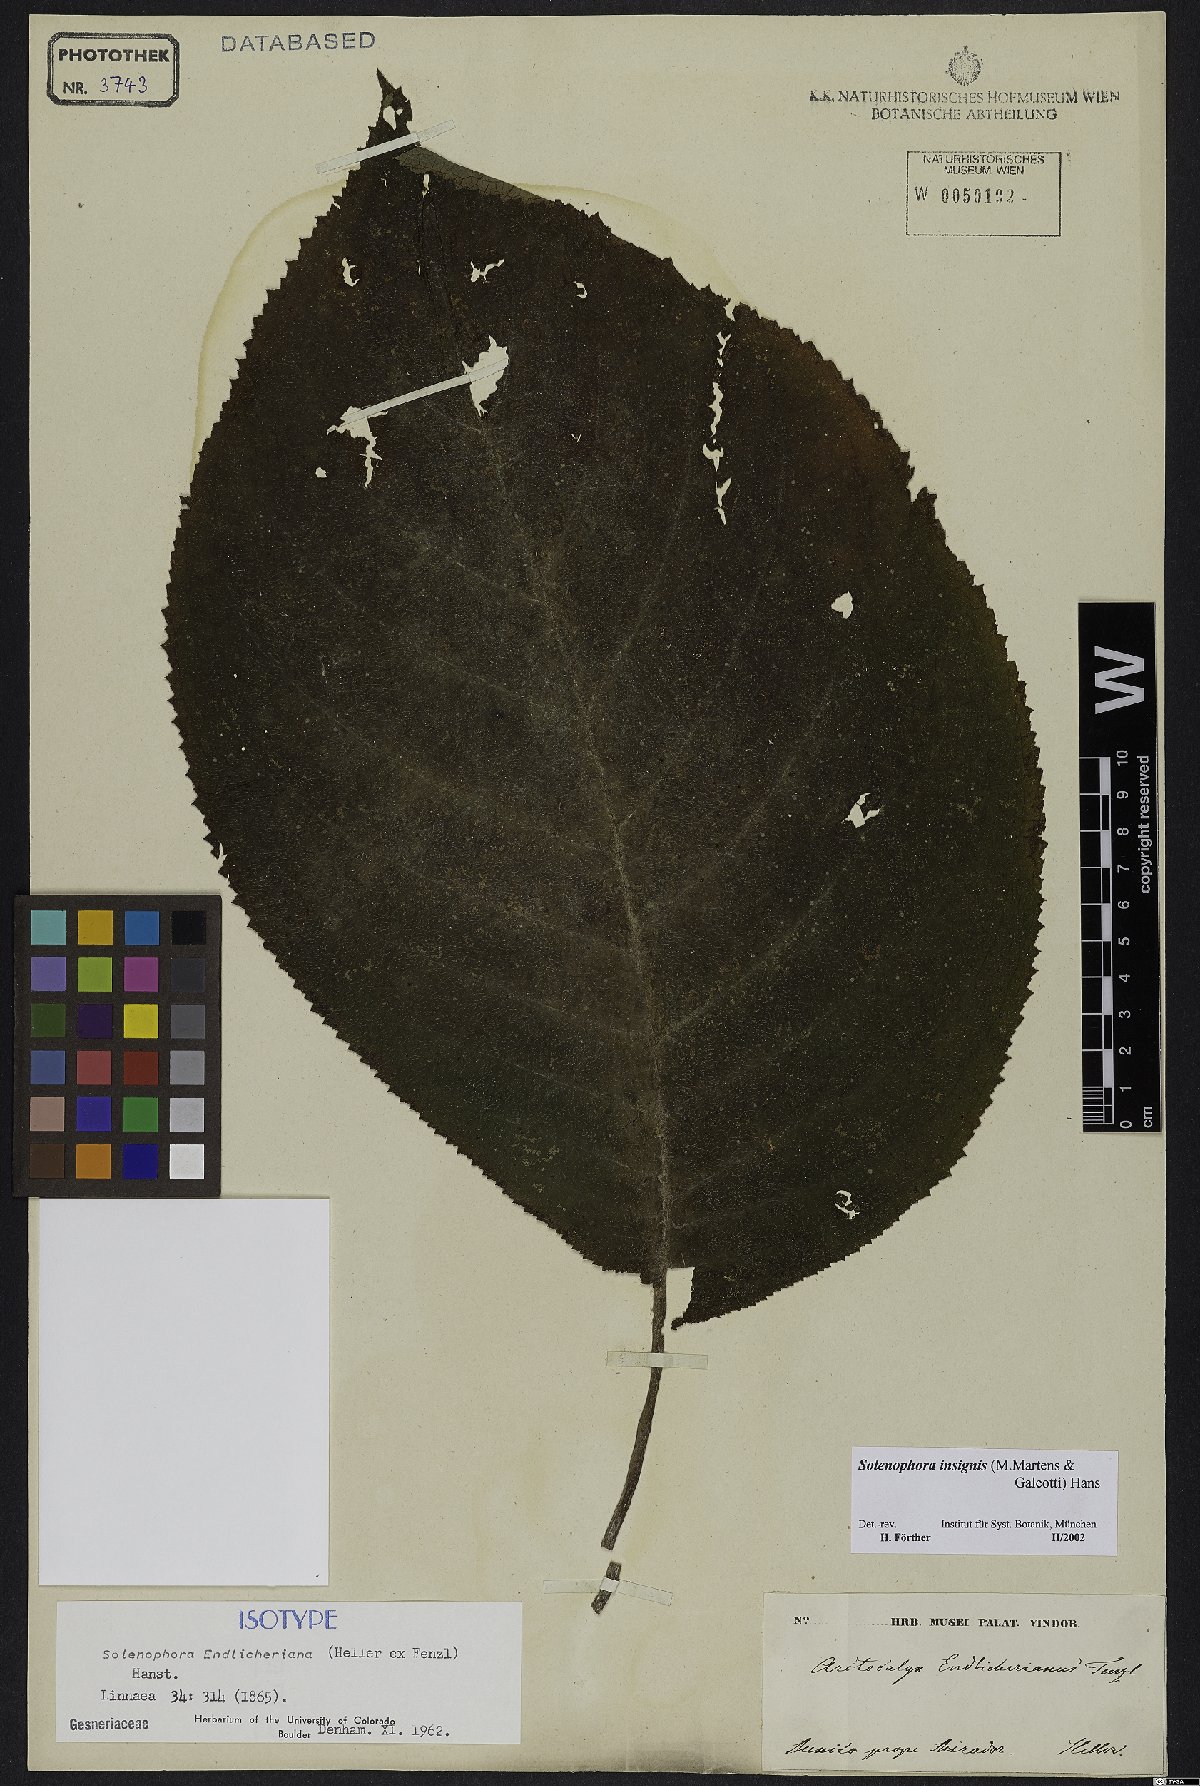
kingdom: Plantae
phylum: Tracheophyta
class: Magnoliopsida
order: Lamiales
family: Gesneriaceae
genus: Solenophora
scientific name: Solenophora insignis
